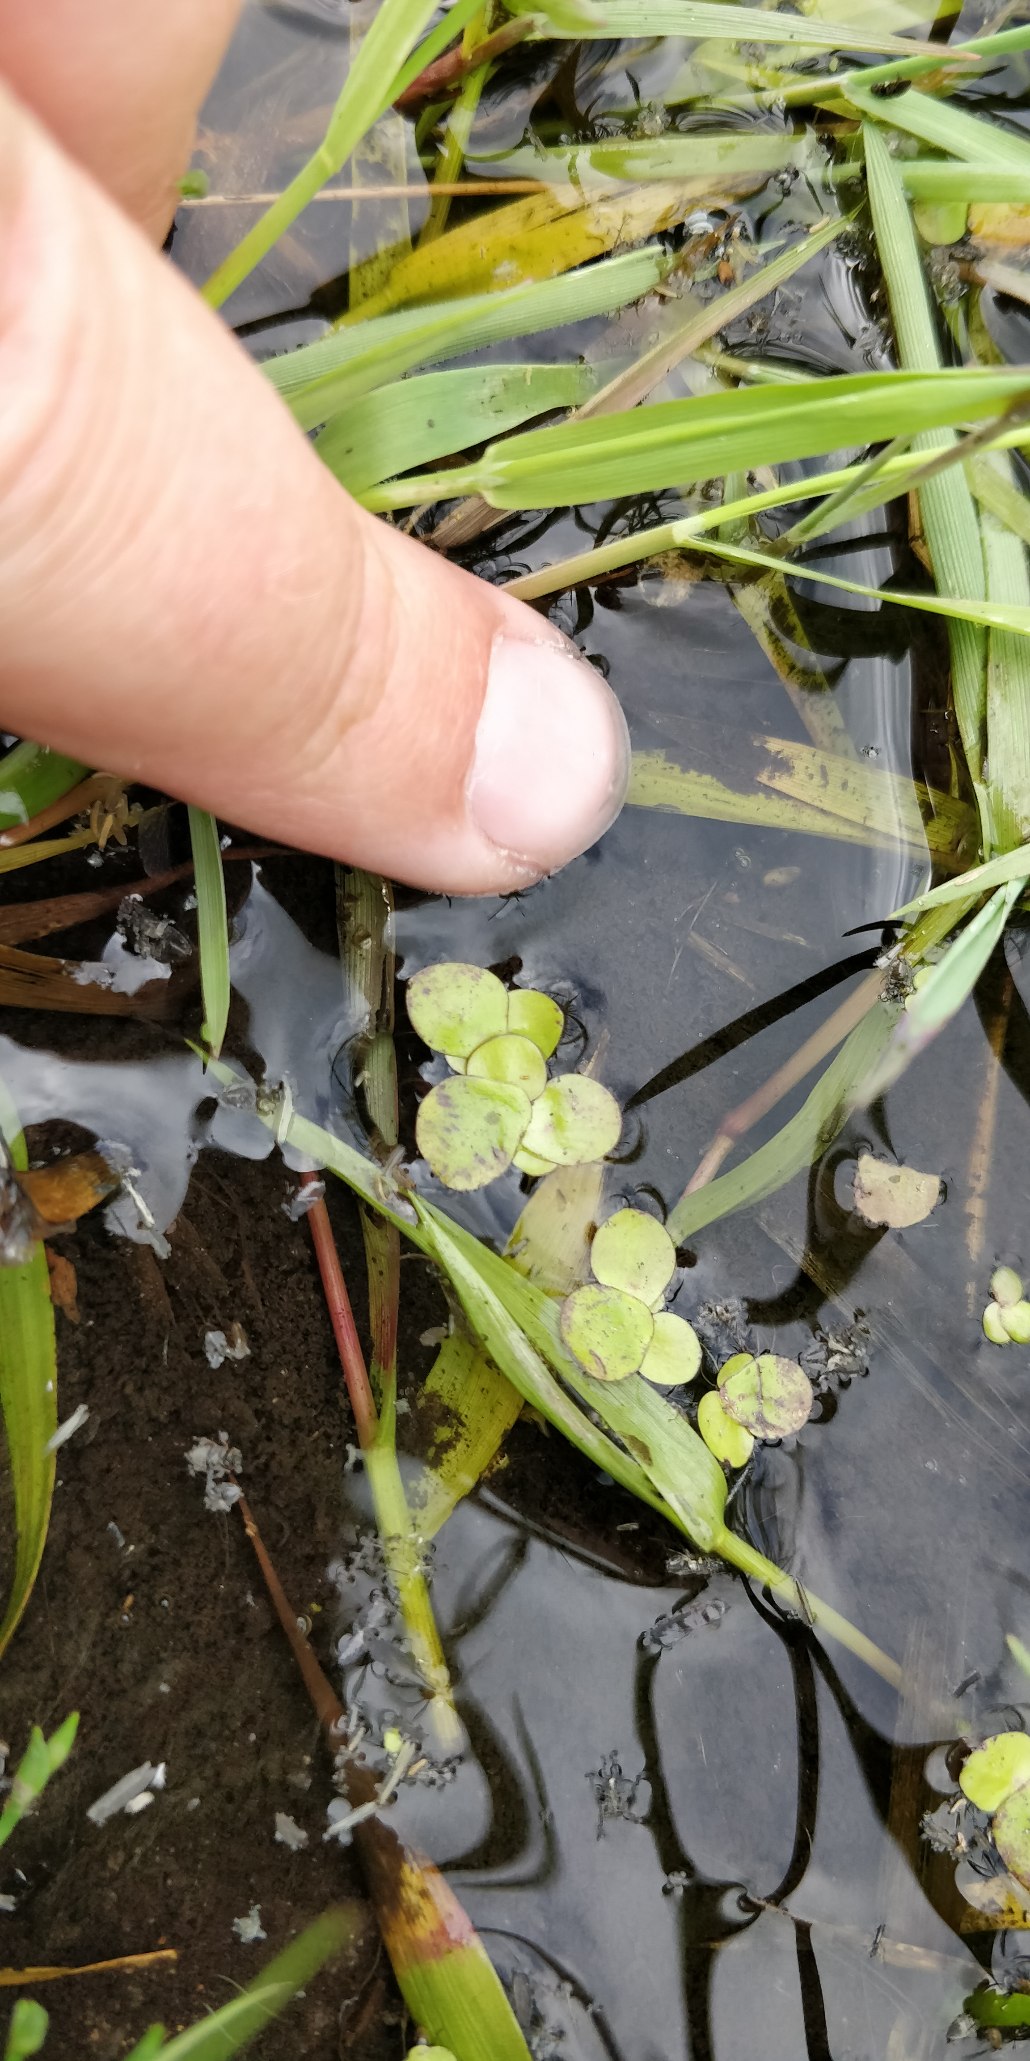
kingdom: Plantae
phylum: Tracheophyta
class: Liliopsida
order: Alismatales
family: Araceae
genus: Lemna
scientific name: Lemna minor
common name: Liden andemad
